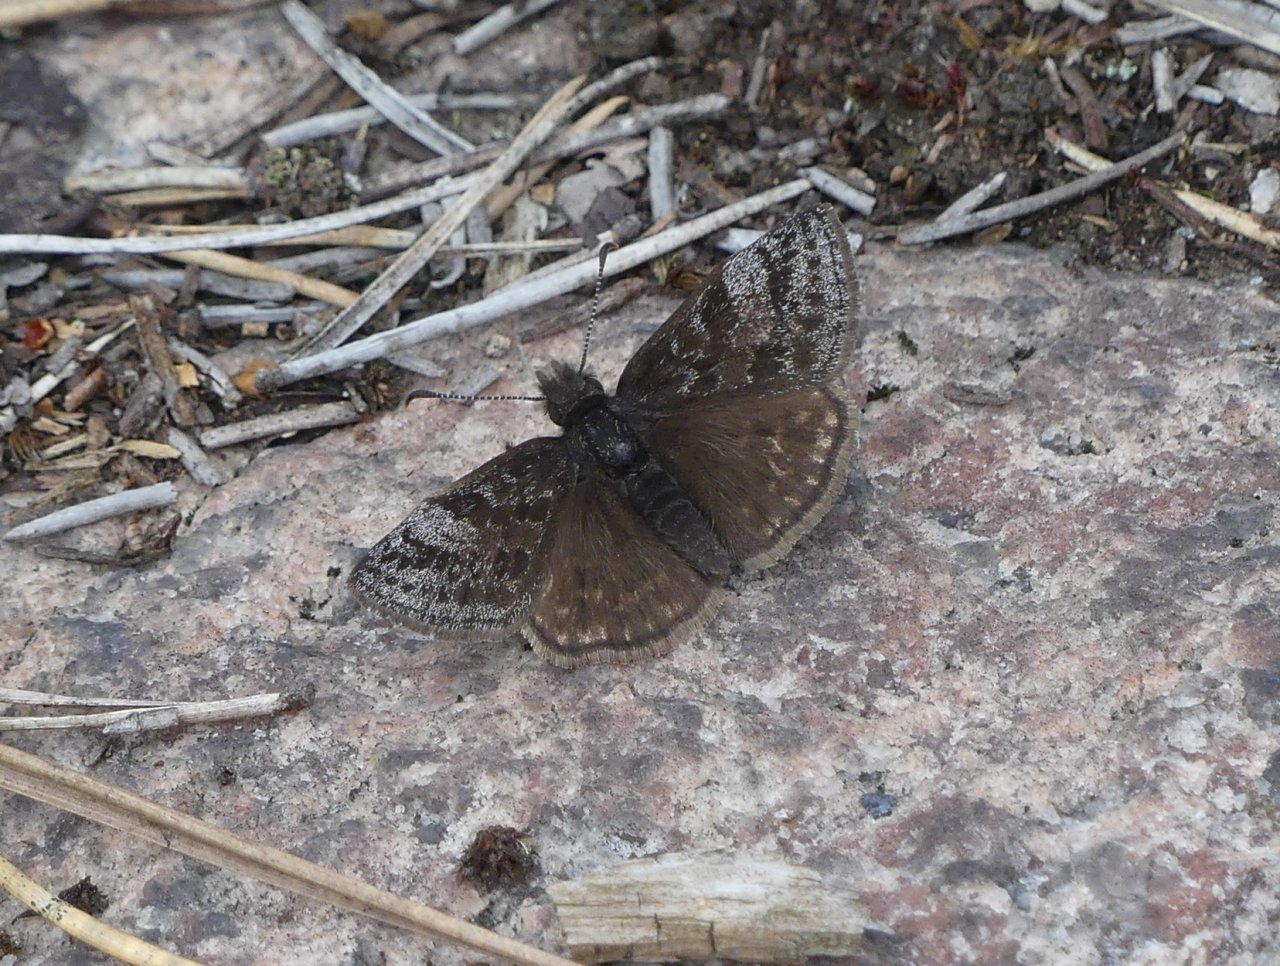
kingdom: Animalia
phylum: Arthropoda
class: Insecta
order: Lepidoptera
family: Hesperiidae
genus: Erynnis
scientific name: Erynnis icelus
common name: Dreamy Duskywing
